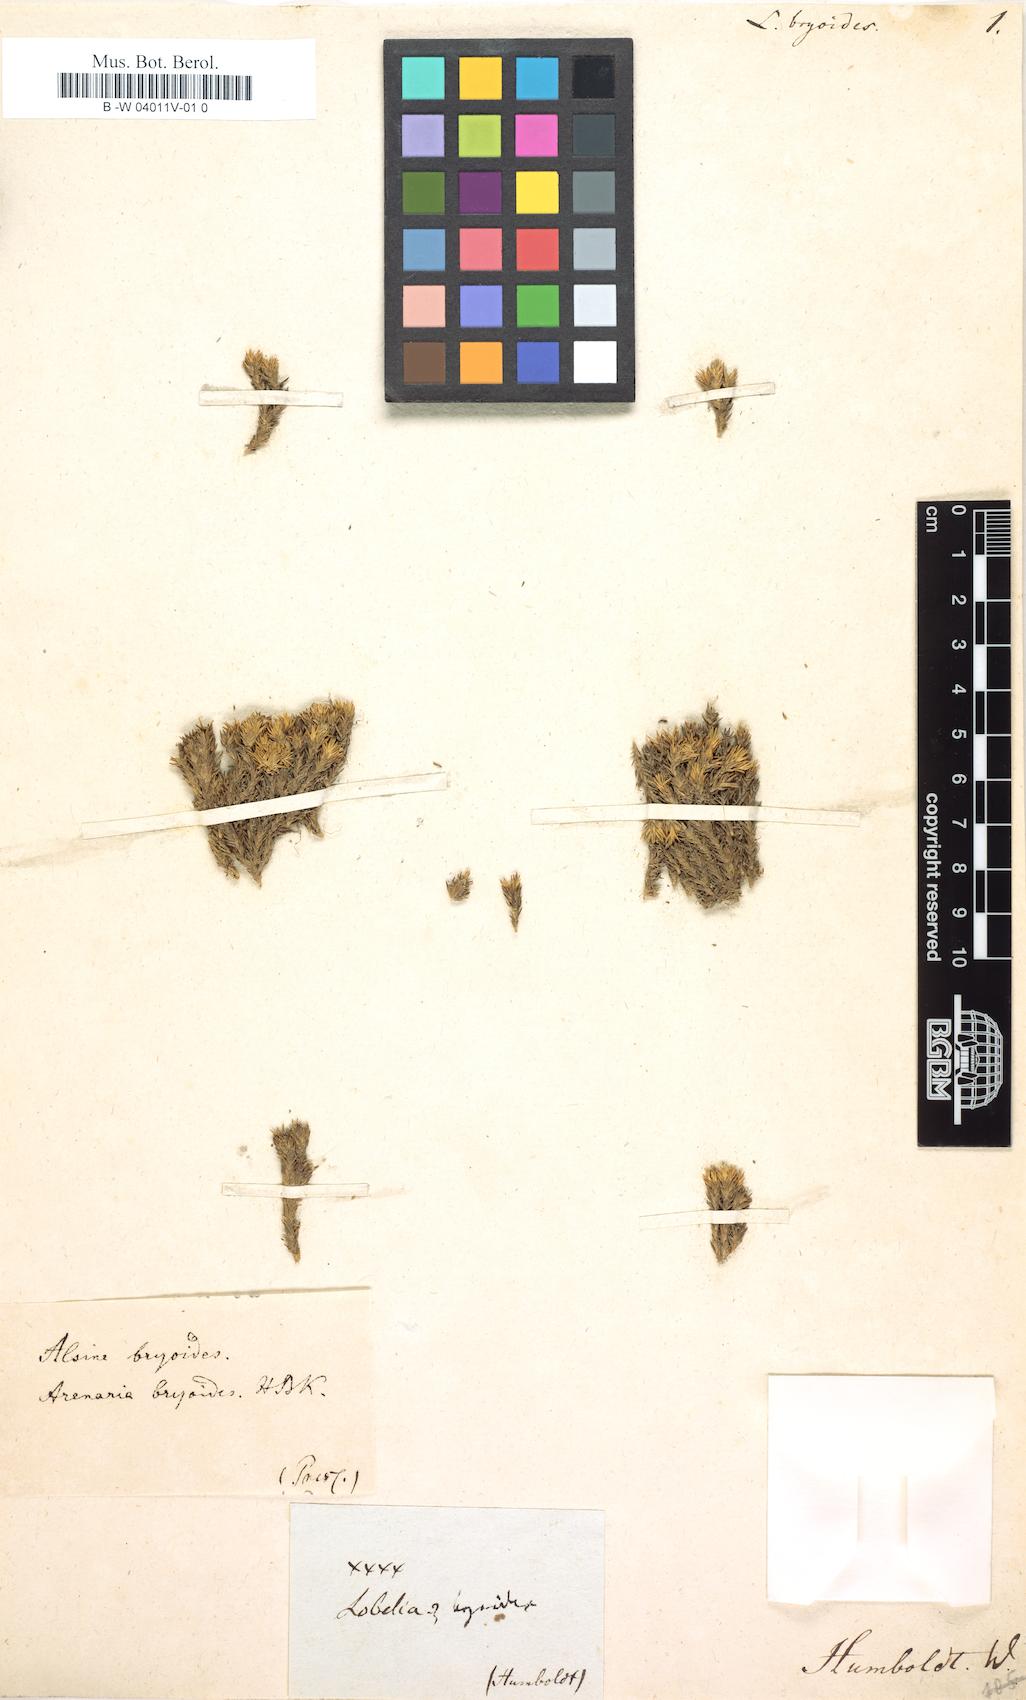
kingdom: Plantae
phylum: Tracheophyta
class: Magnoliopsida
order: Caryophyllales
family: Caryophyllaceae
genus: Arenaria
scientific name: Arenaria dicranoides
